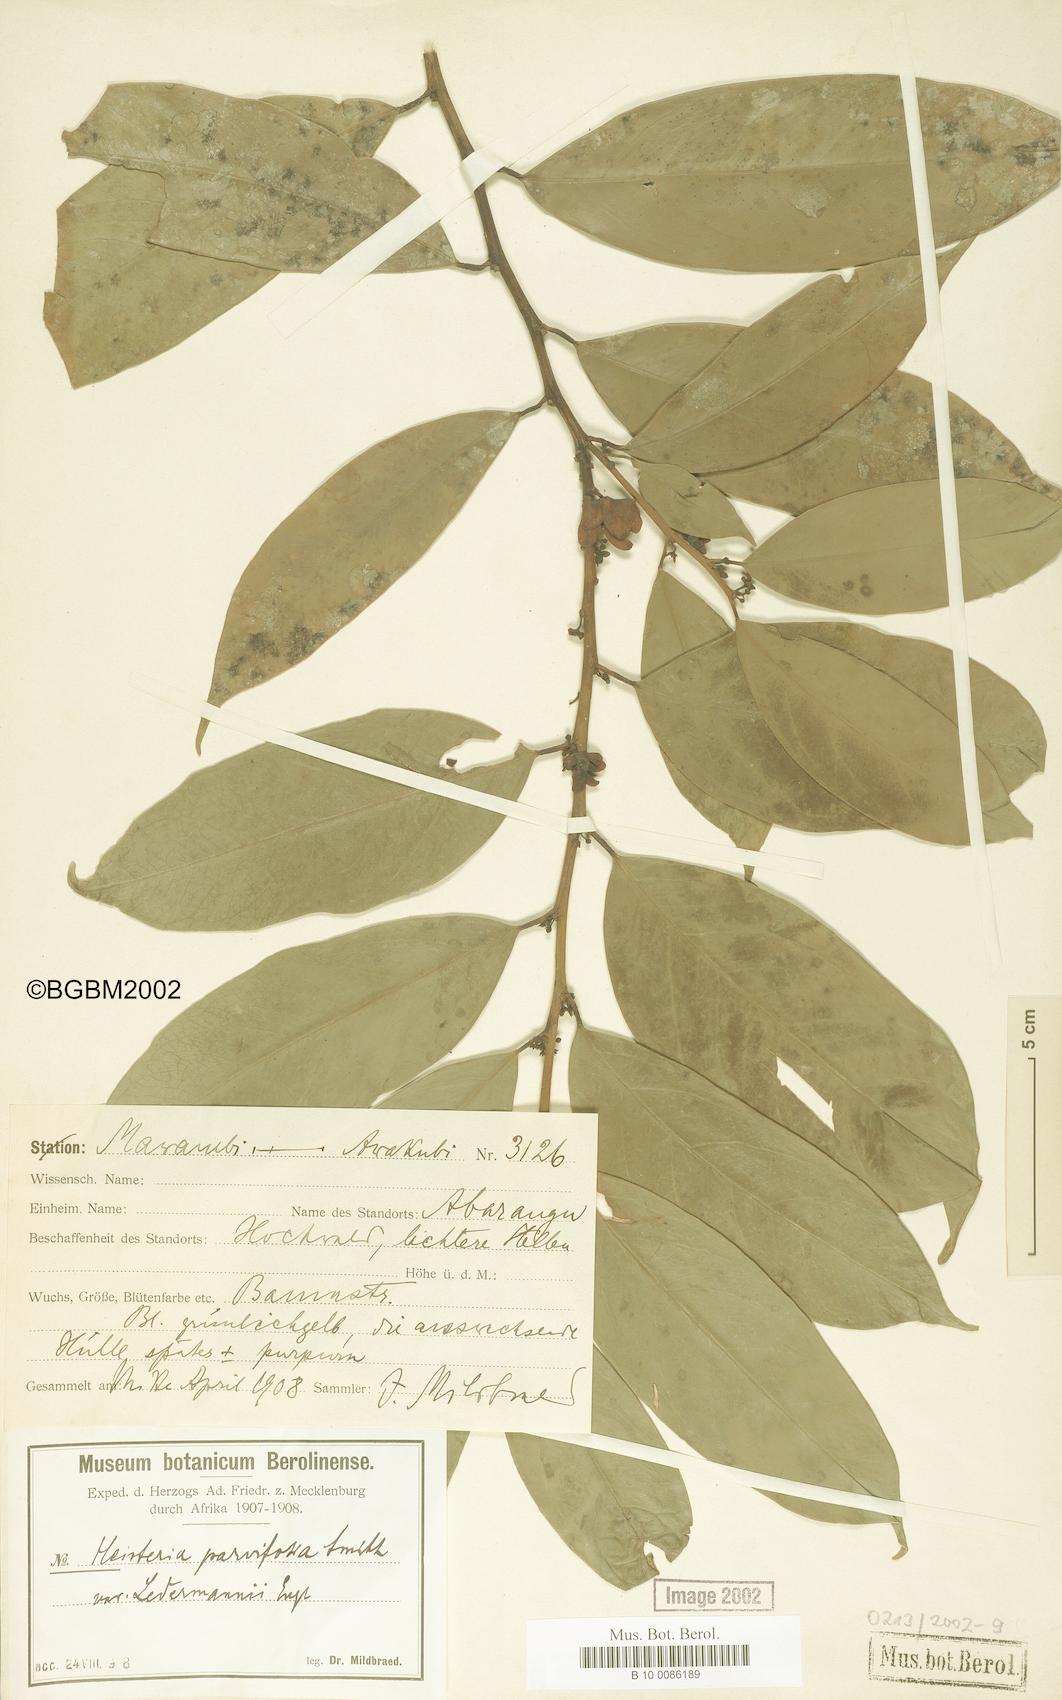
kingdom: Plantae
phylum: Tracheophyta
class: Magnoliopsida
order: Santalales
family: Erythropalaceae
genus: Heisteria
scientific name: Heisteria parvifolia
